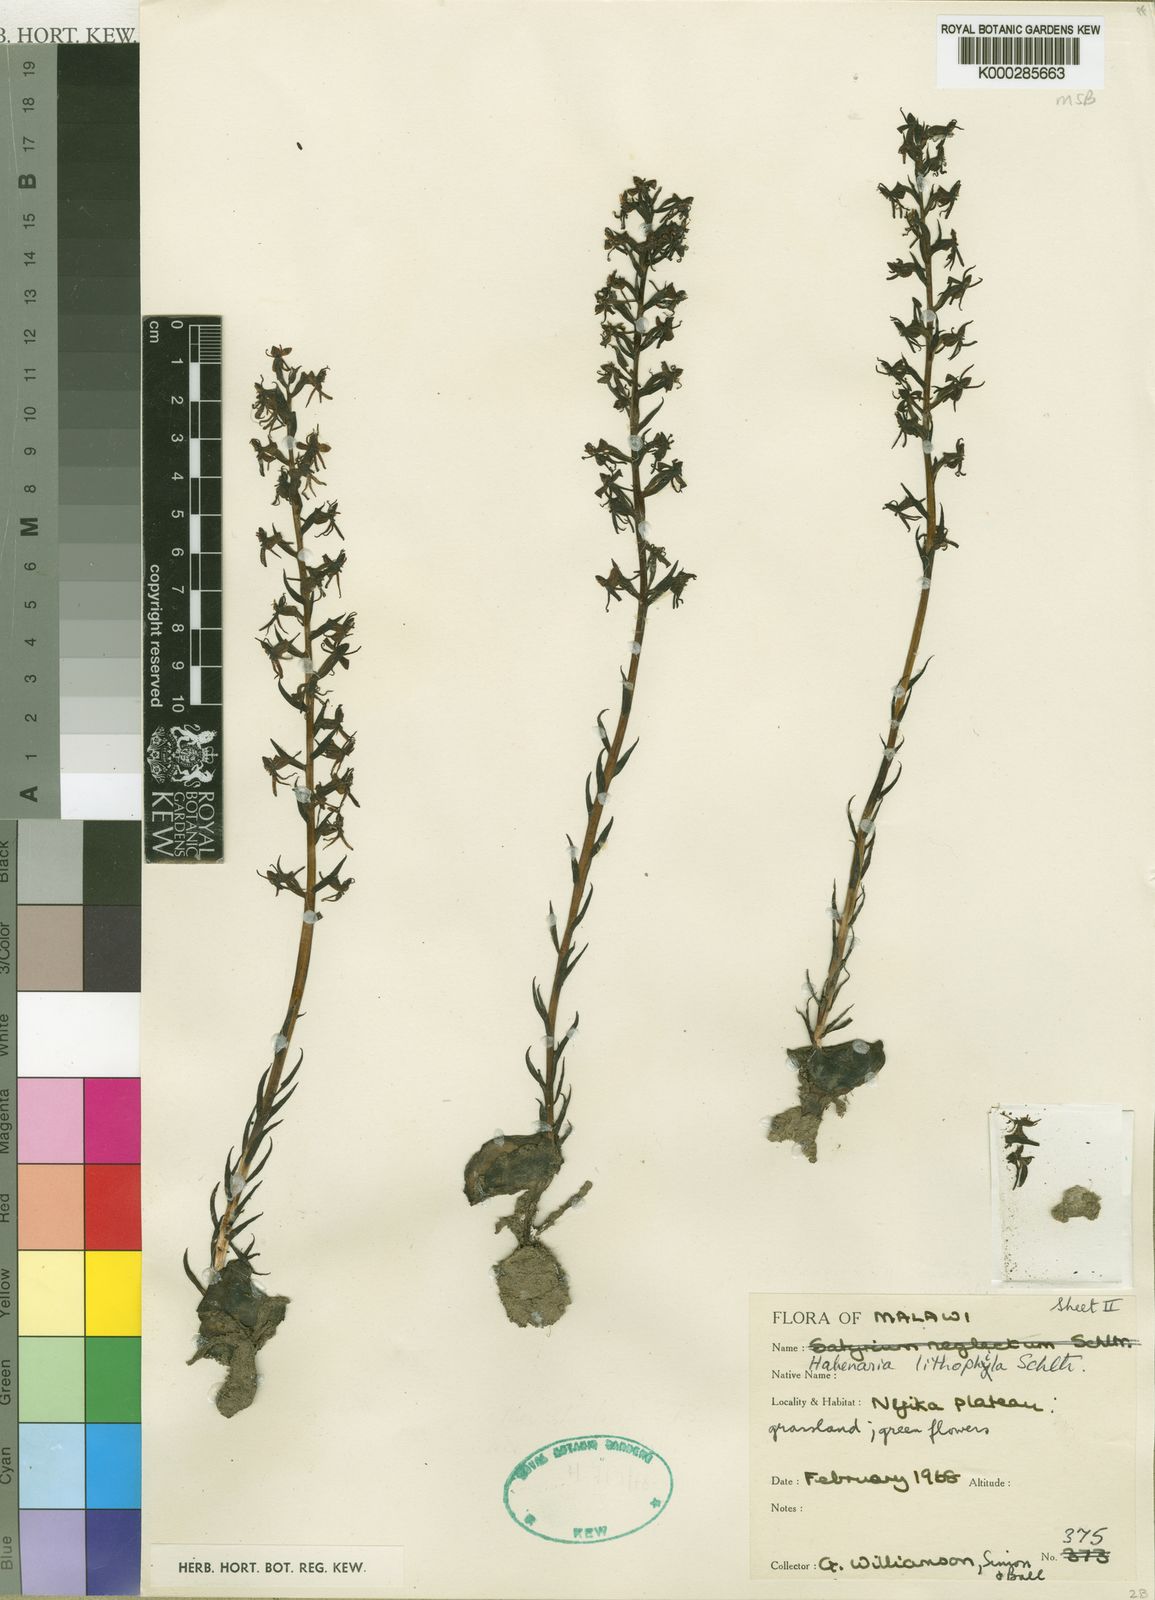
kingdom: Plantae
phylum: Tracheophyta
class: Liliopsida
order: Asparagales
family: Orchidaceae
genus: Habenaria
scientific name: Habenaria nyikensis
